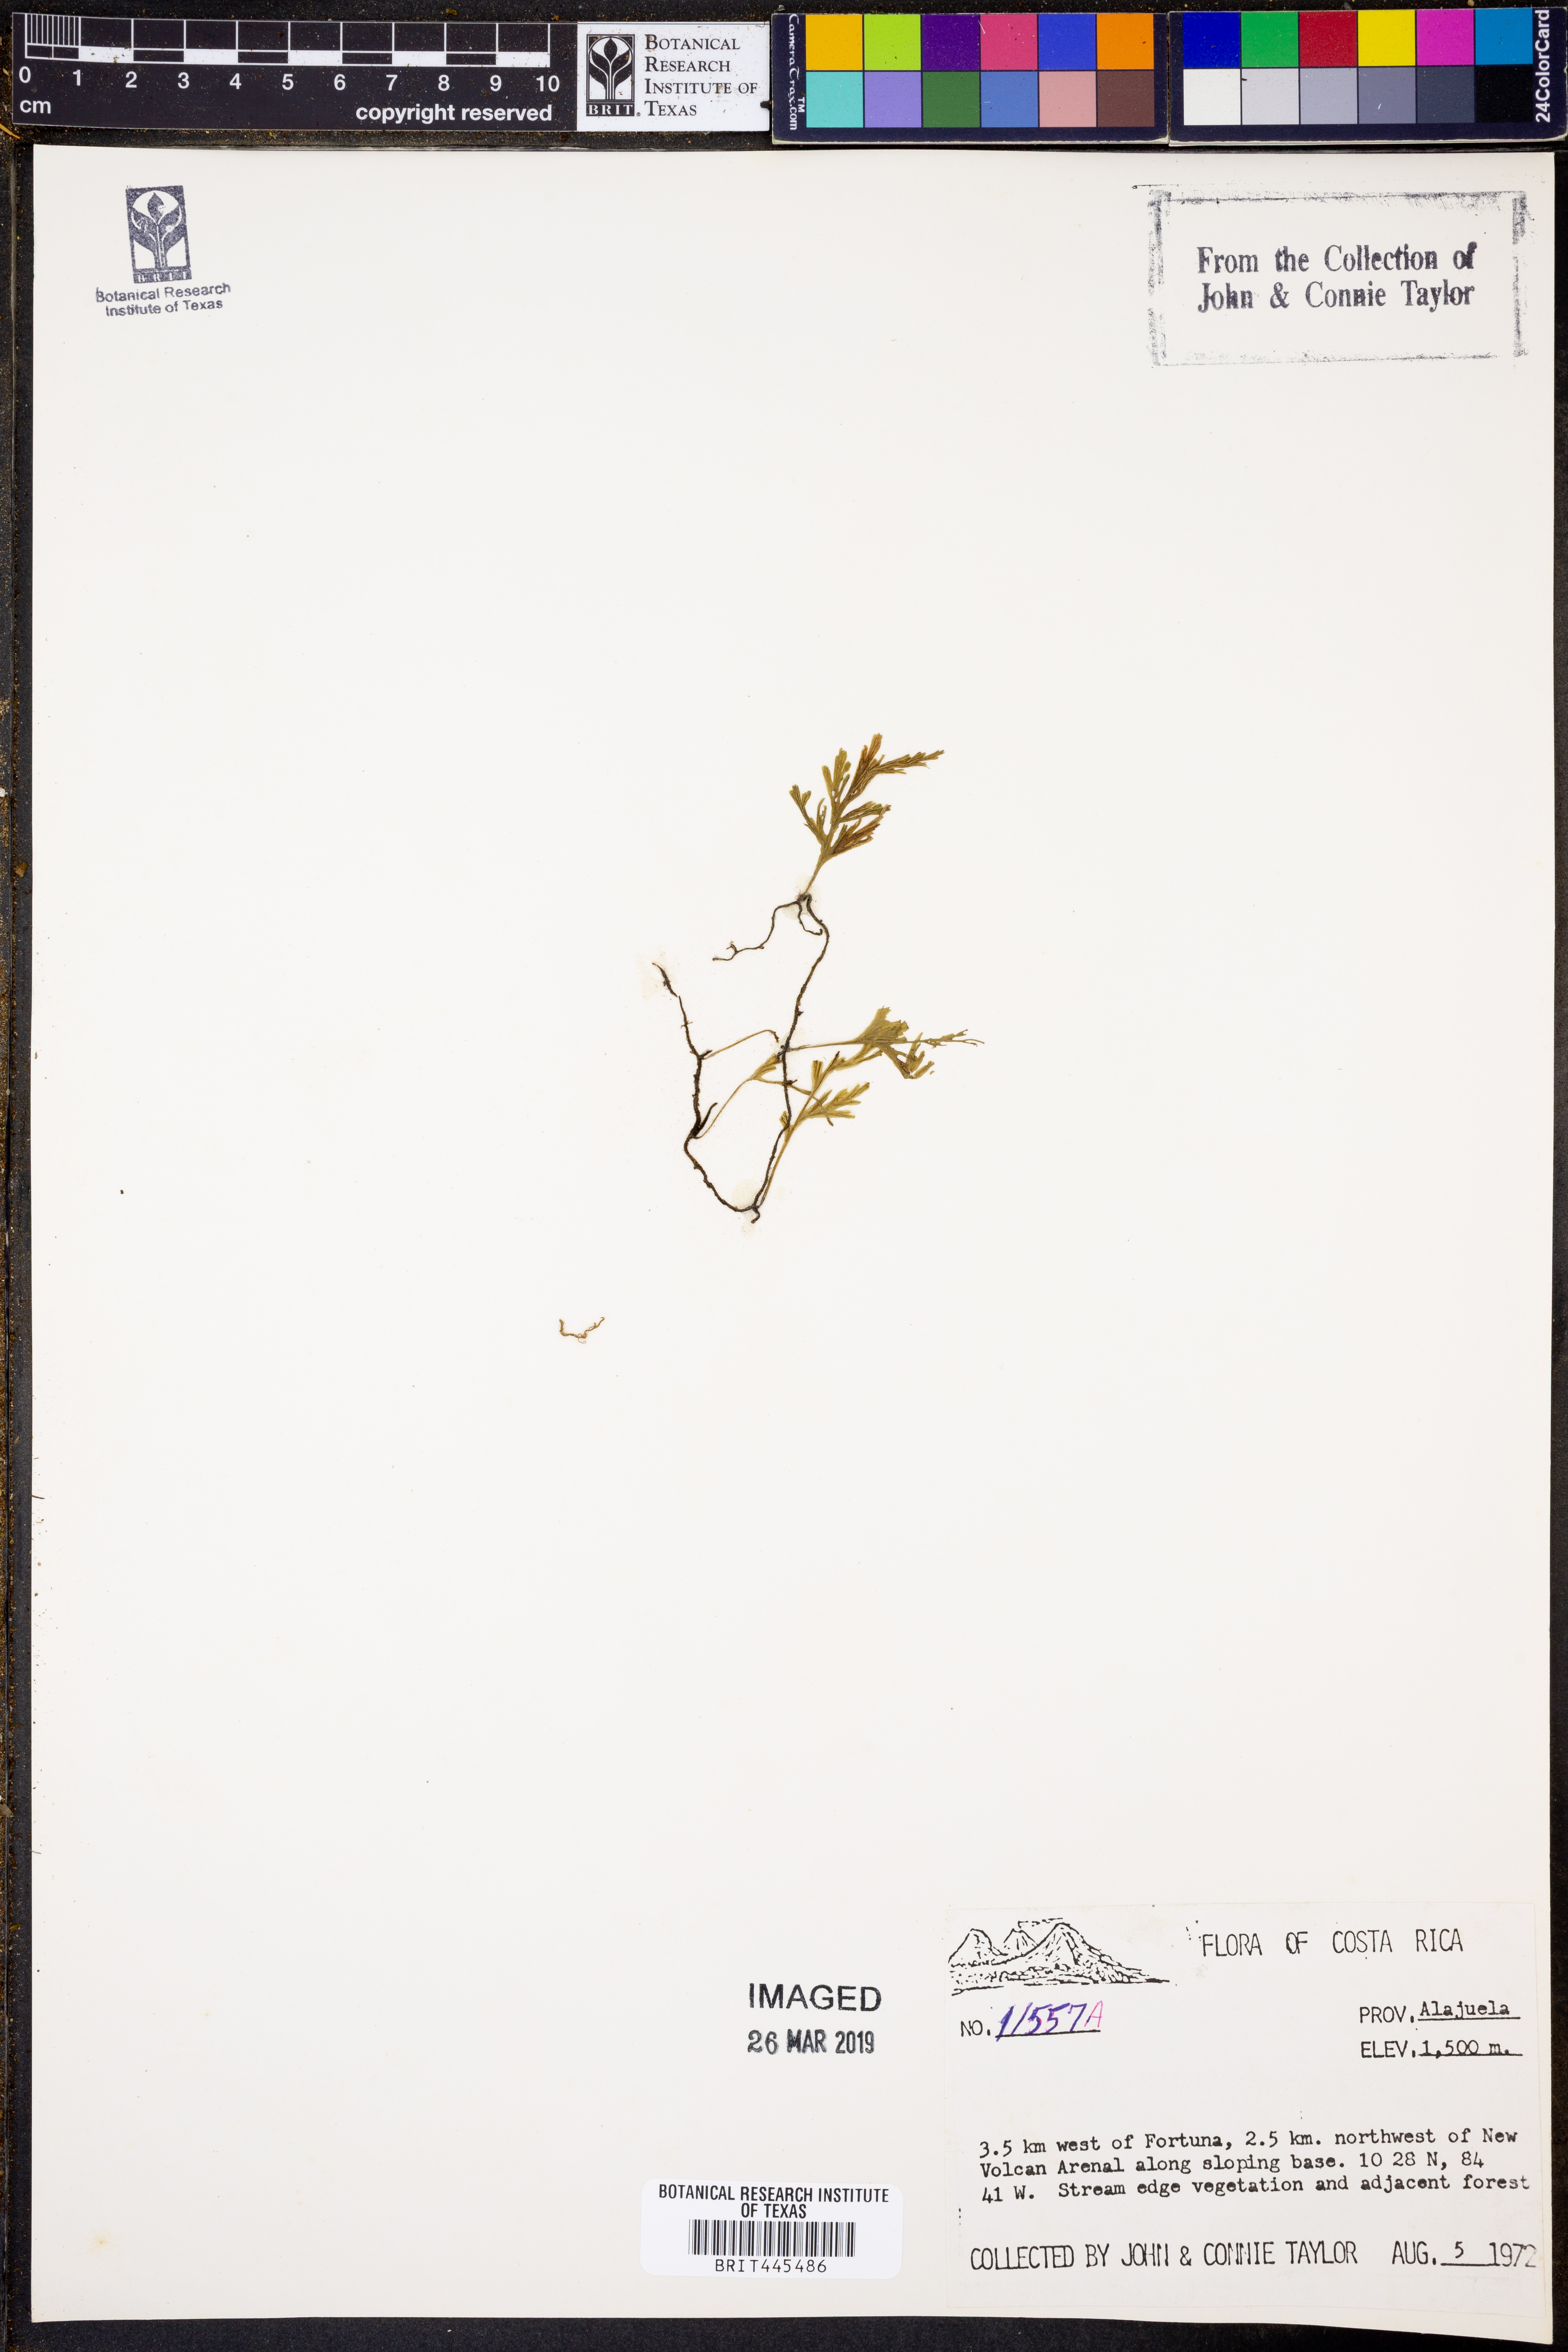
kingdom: Plantae
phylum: Tracheophyta
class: Polypodiopsida
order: Hymenophyllales
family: Hymenophyllaceae
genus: Trichomanes
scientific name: Trichomanes
